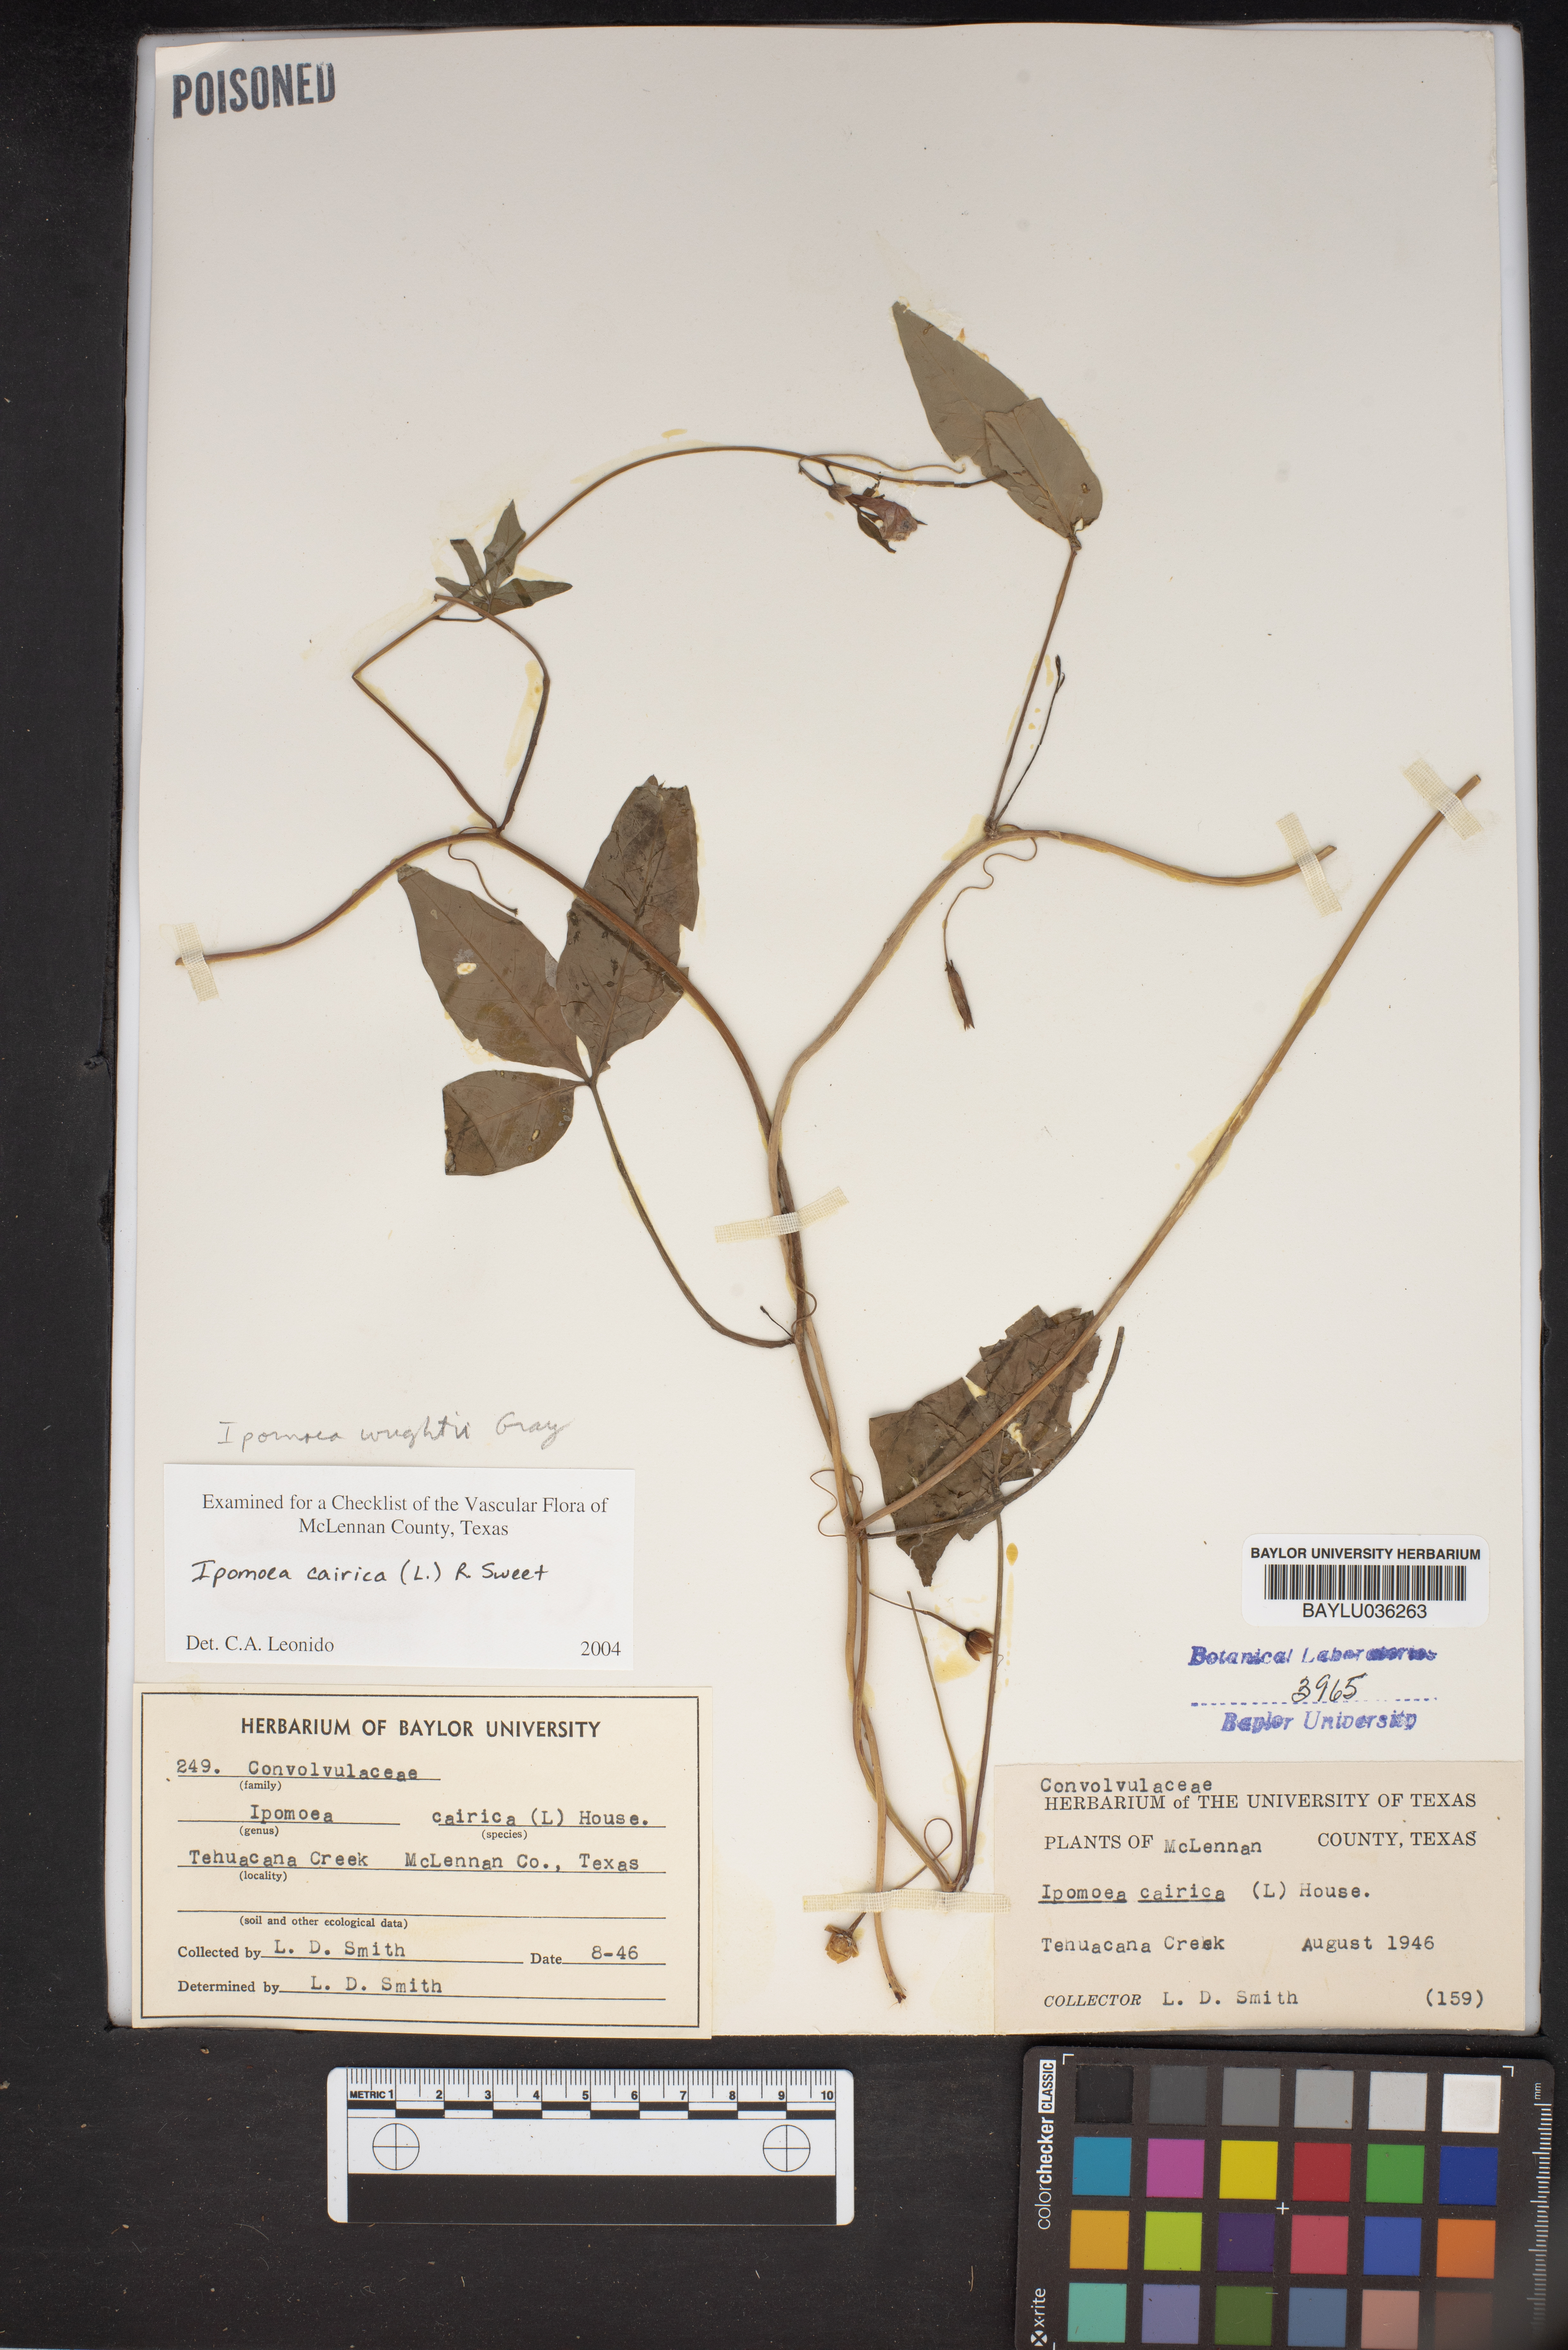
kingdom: Plantae
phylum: Tracheophyta
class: Magnoliopsida
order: Solanales
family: Convolvulaceae
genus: Ipomoea
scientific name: Ipomoea cairica
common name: Mile a minute vine
